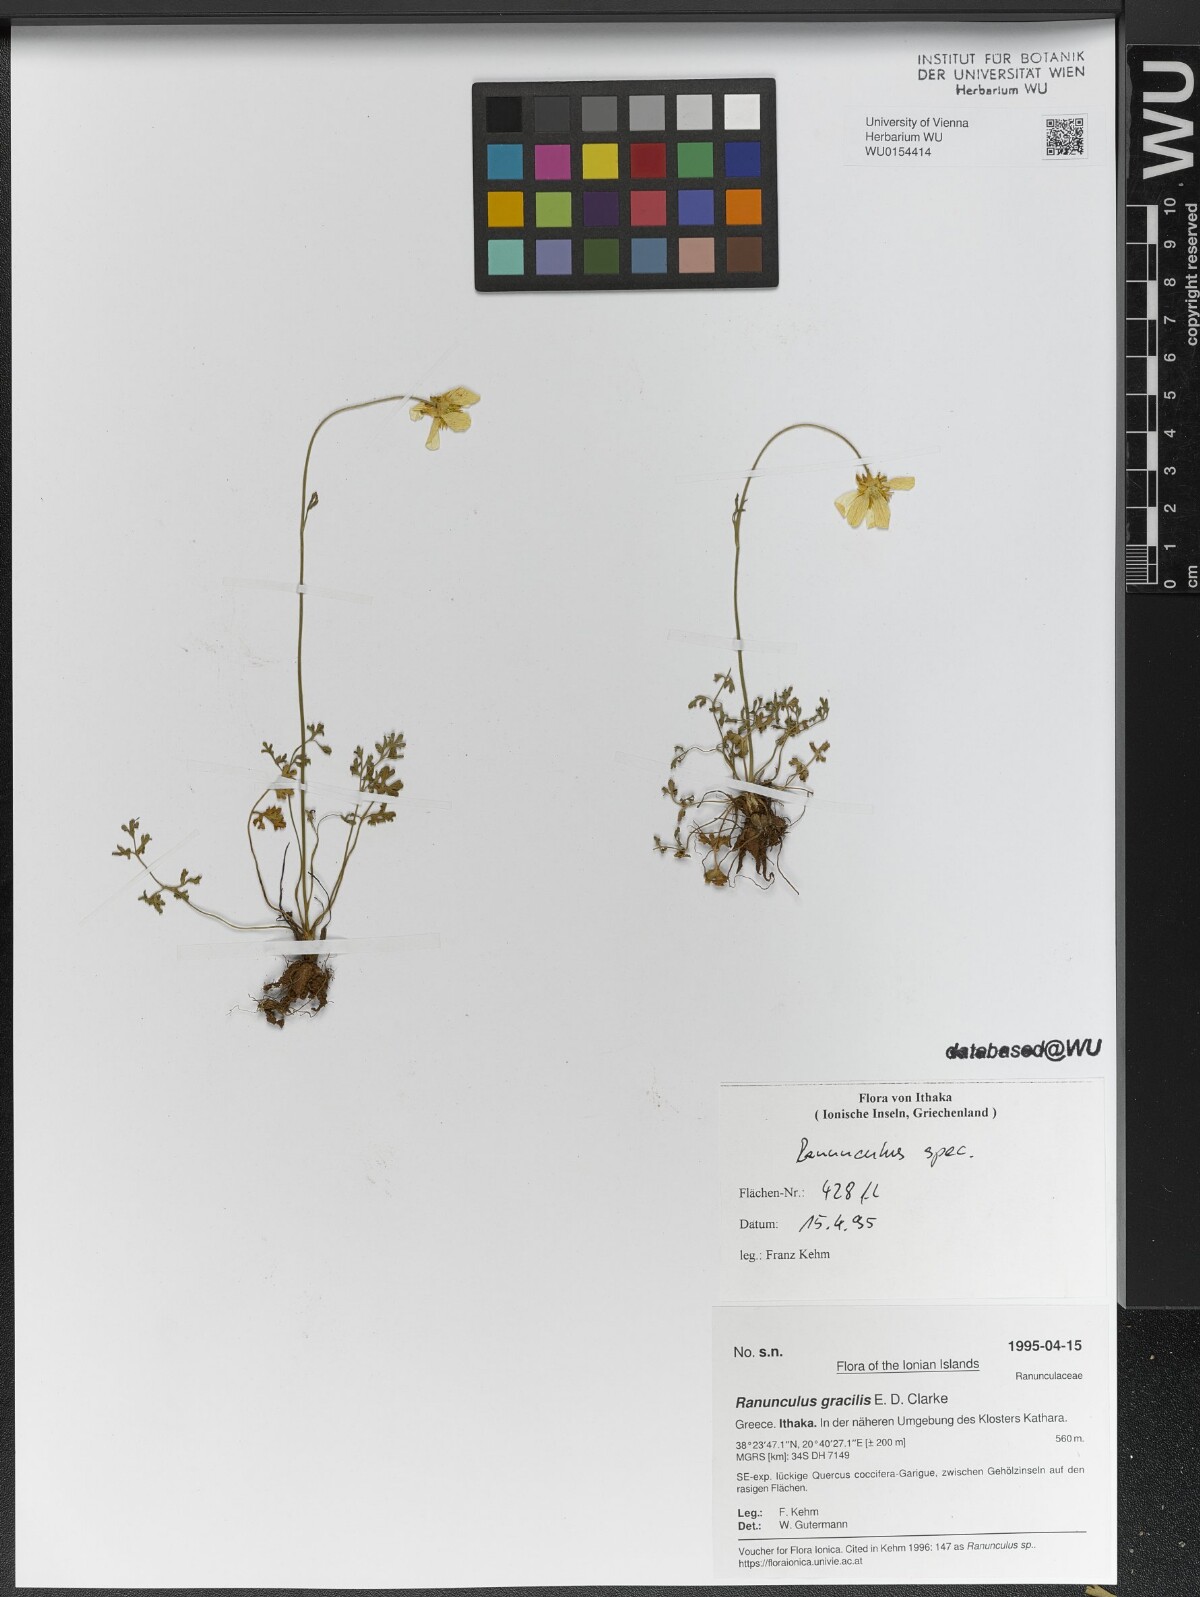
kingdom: Plantae
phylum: Tracheophyta
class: Magnoliopsida
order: Ranunculales
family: Ranunculaceae
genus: Ranunculus
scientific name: Ranunculus gracilis
